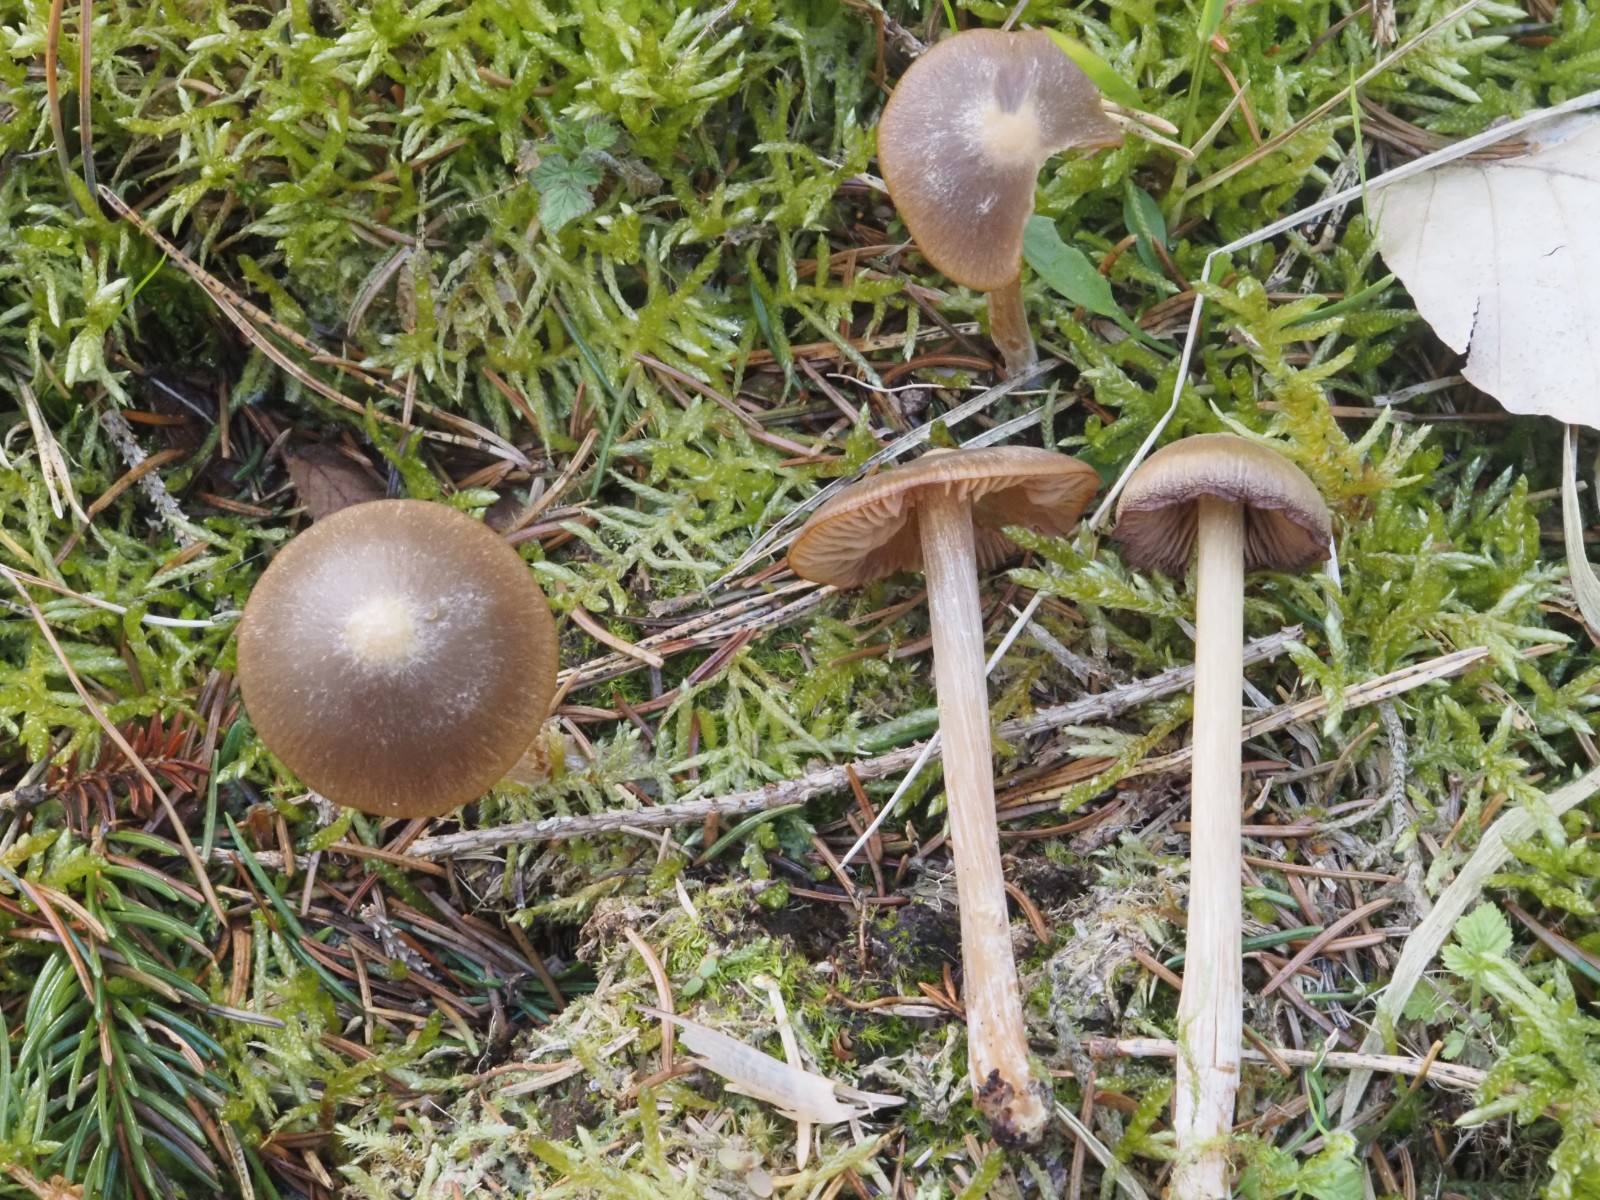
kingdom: Fungi
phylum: Basidiomycota
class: Agaricomycetes
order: Agaricales
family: Entolomataceae
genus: Entoloma
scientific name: Entoloma
